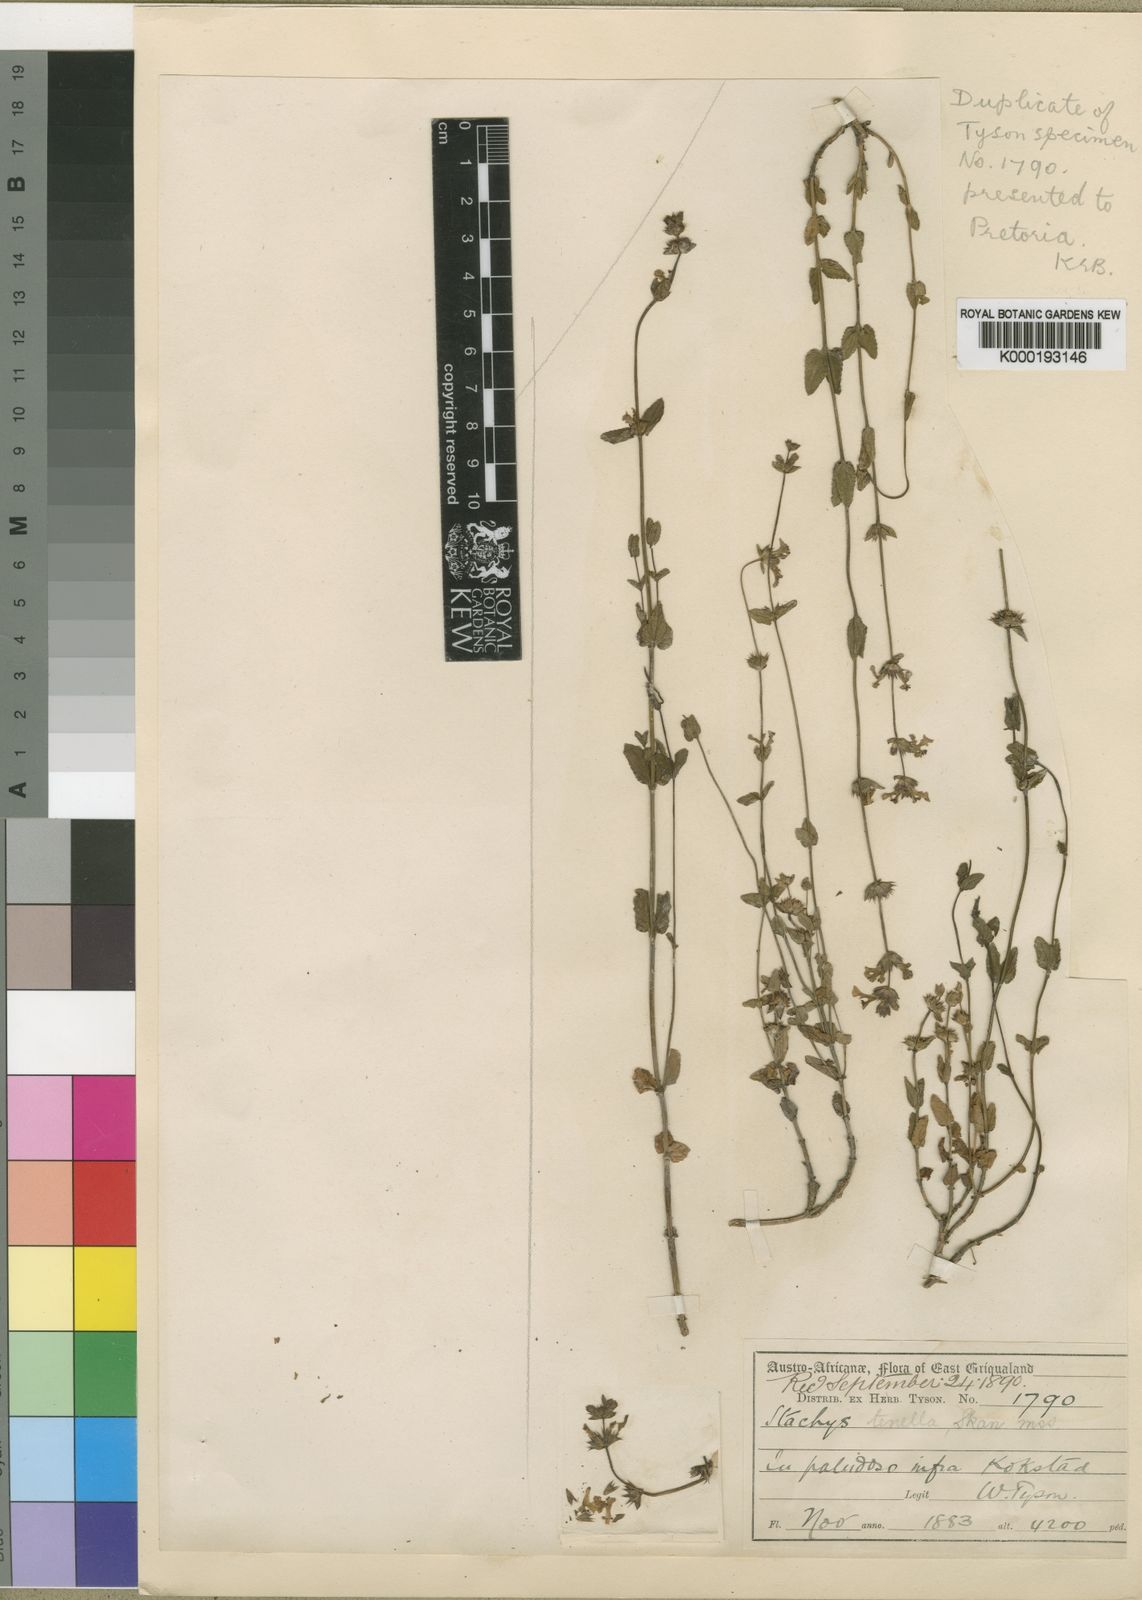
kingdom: Plantae
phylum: Tracheophyta
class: Magnoliopsida
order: Lamiales
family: Lamiaceae
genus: Stachys
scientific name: Stachys humifusa
